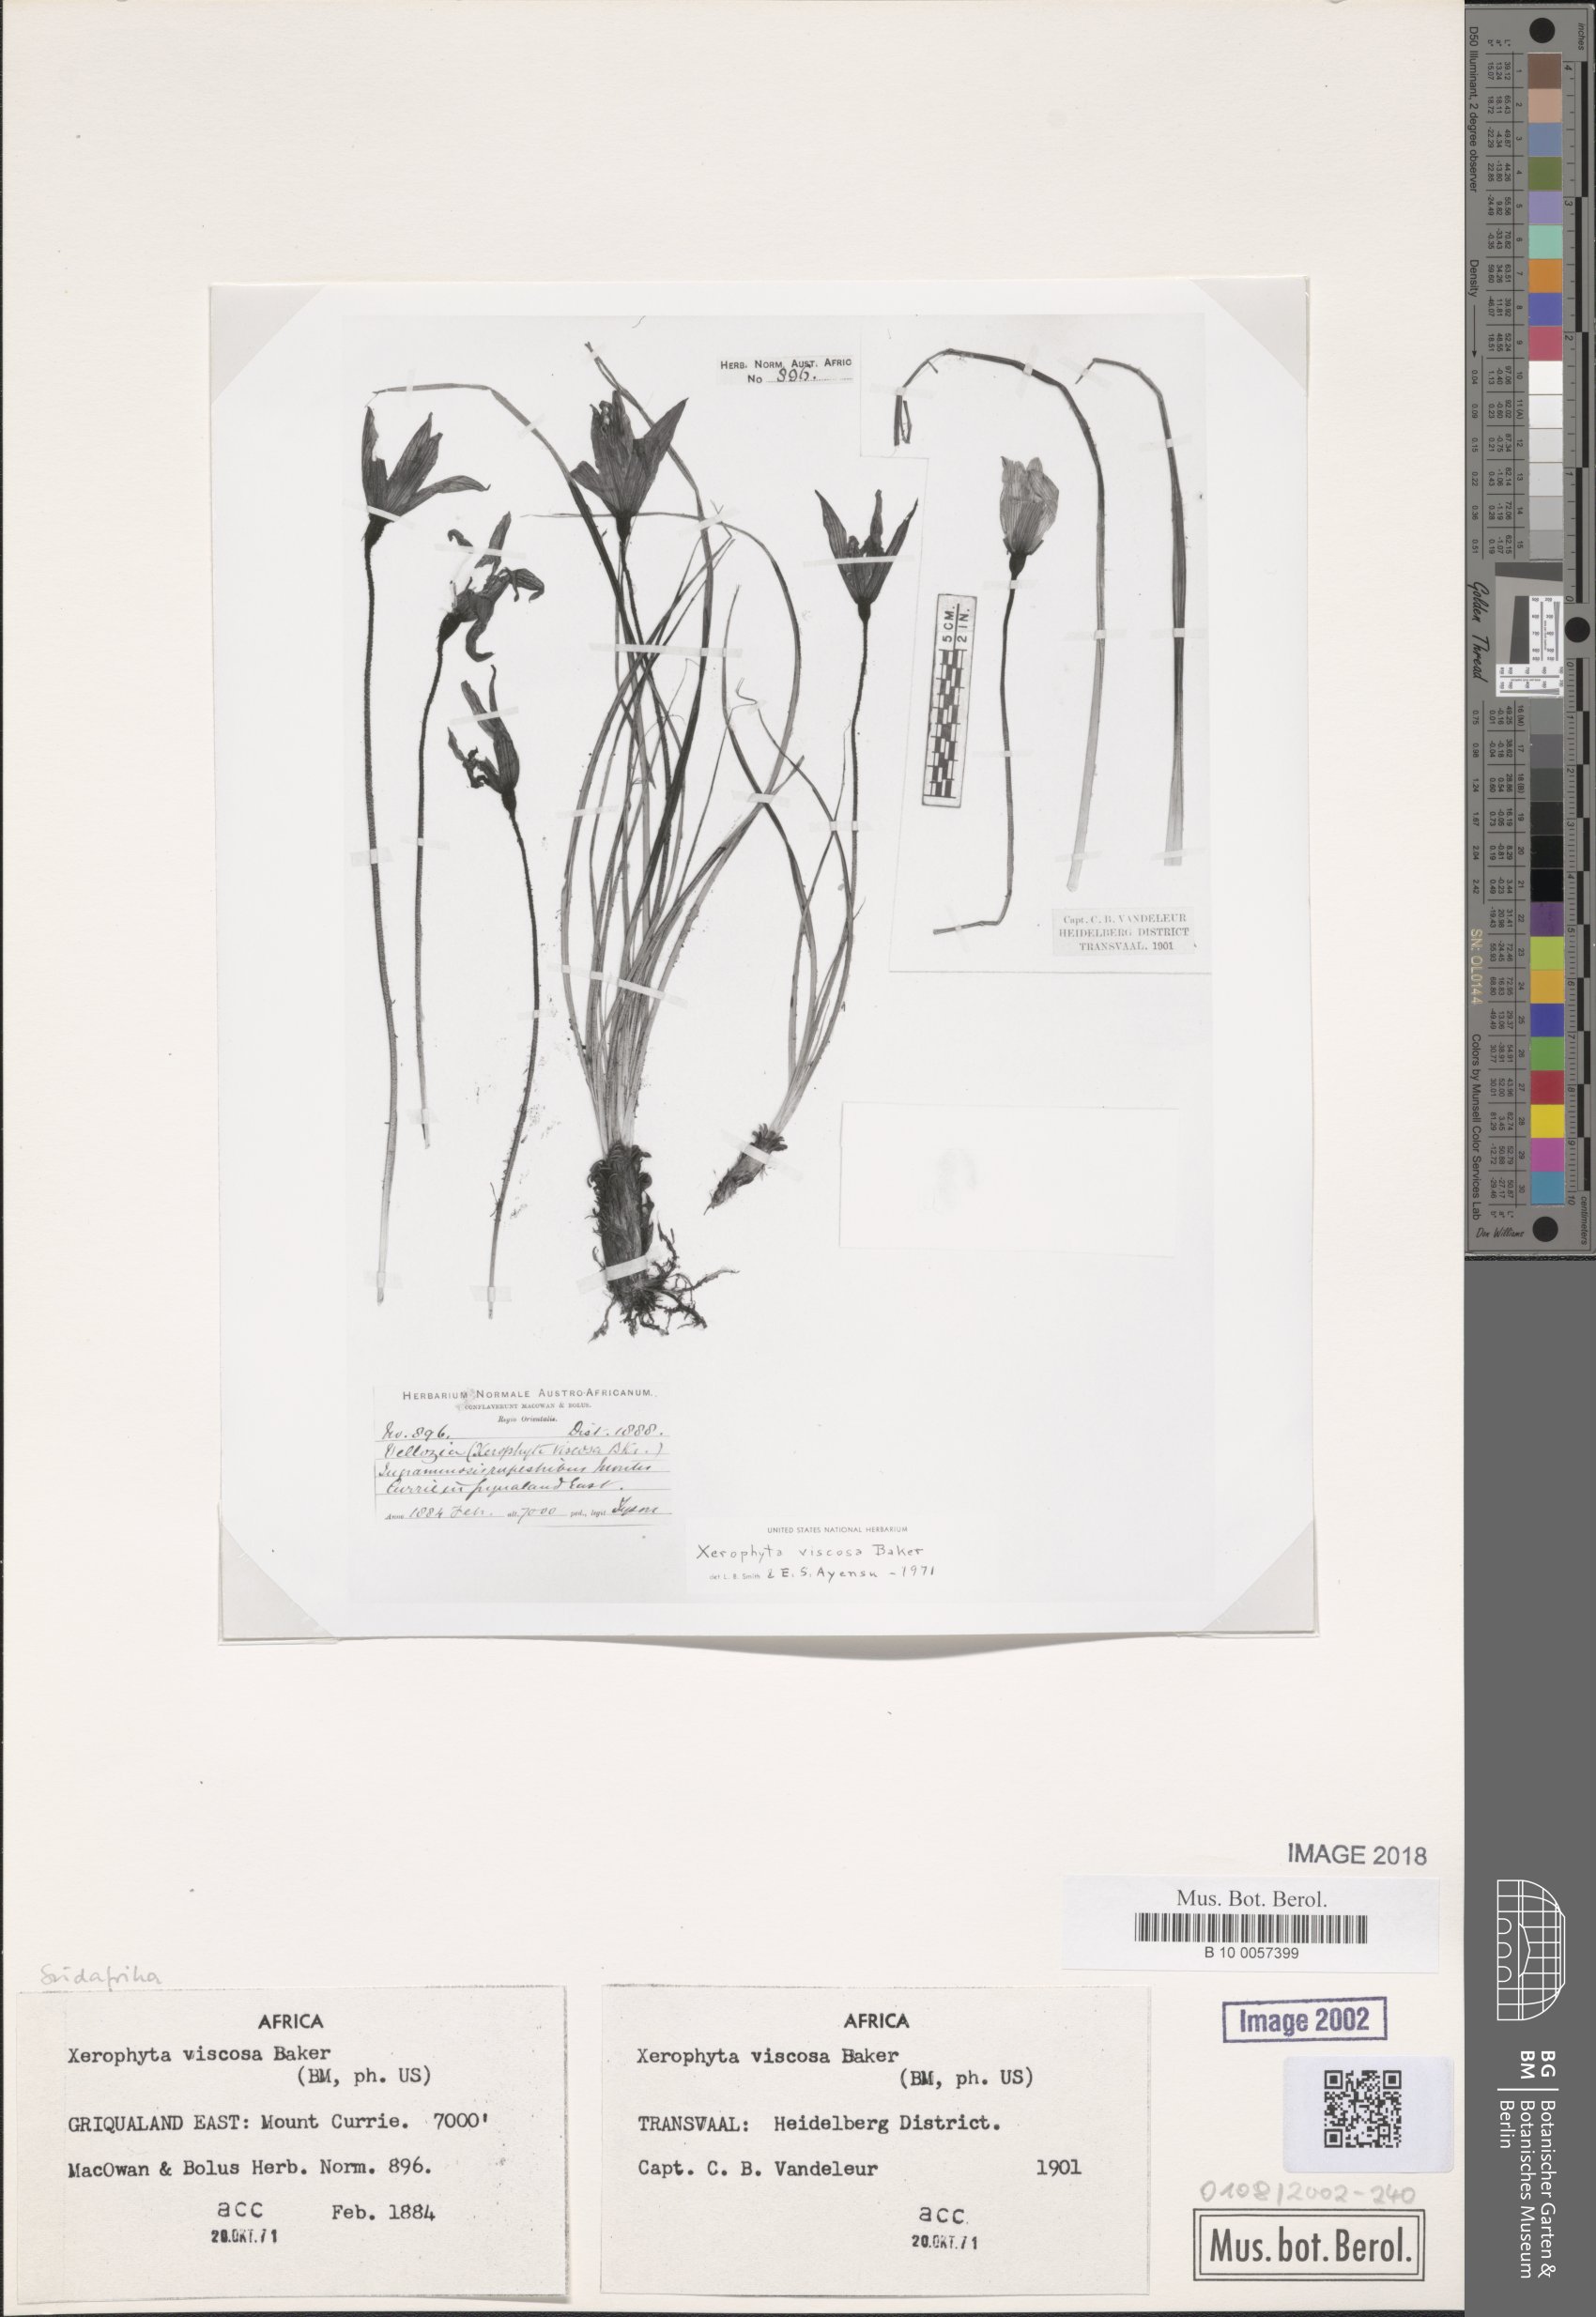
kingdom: Plantae
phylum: Tracheophyta
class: Liliopsida
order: Pandanales
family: Velloziaceae
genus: Xerophyta
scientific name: Xerophyta viscosa
